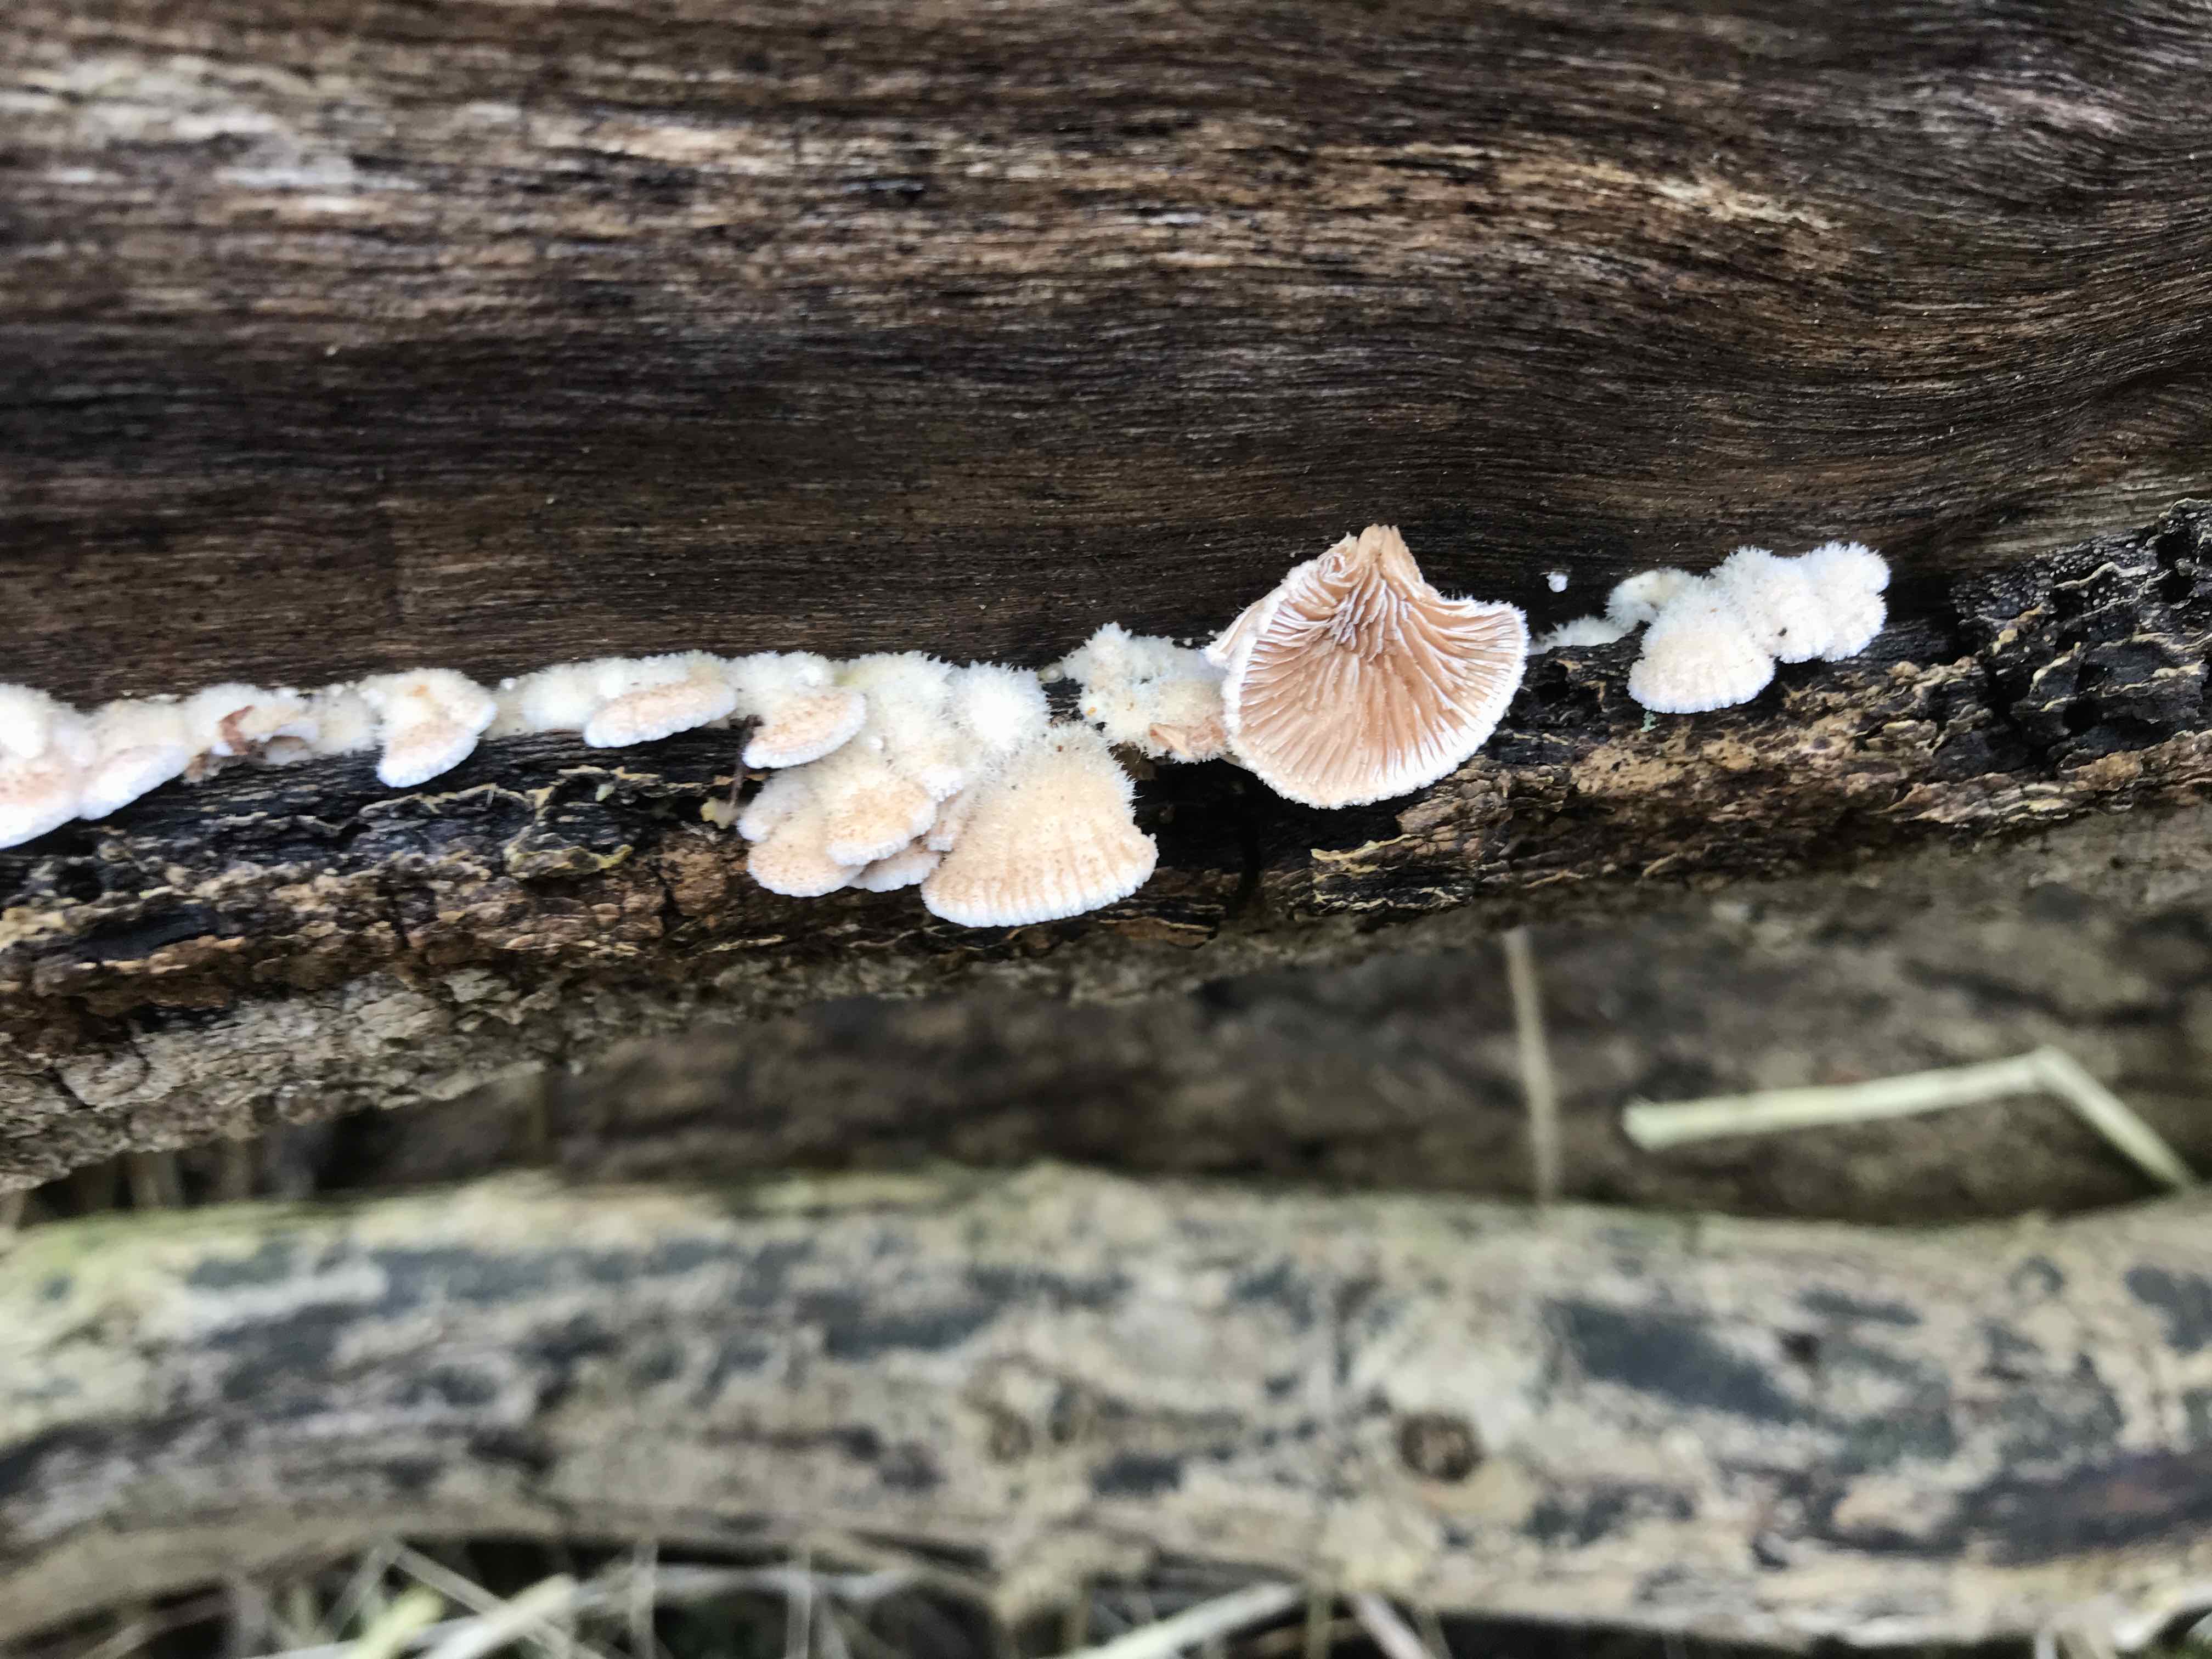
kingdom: Fungi
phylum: Basidiomycota
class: Agaricomycetes
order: Agaricales
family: Crepidotaceae
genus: Crepidotus
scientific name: Crepidotus
